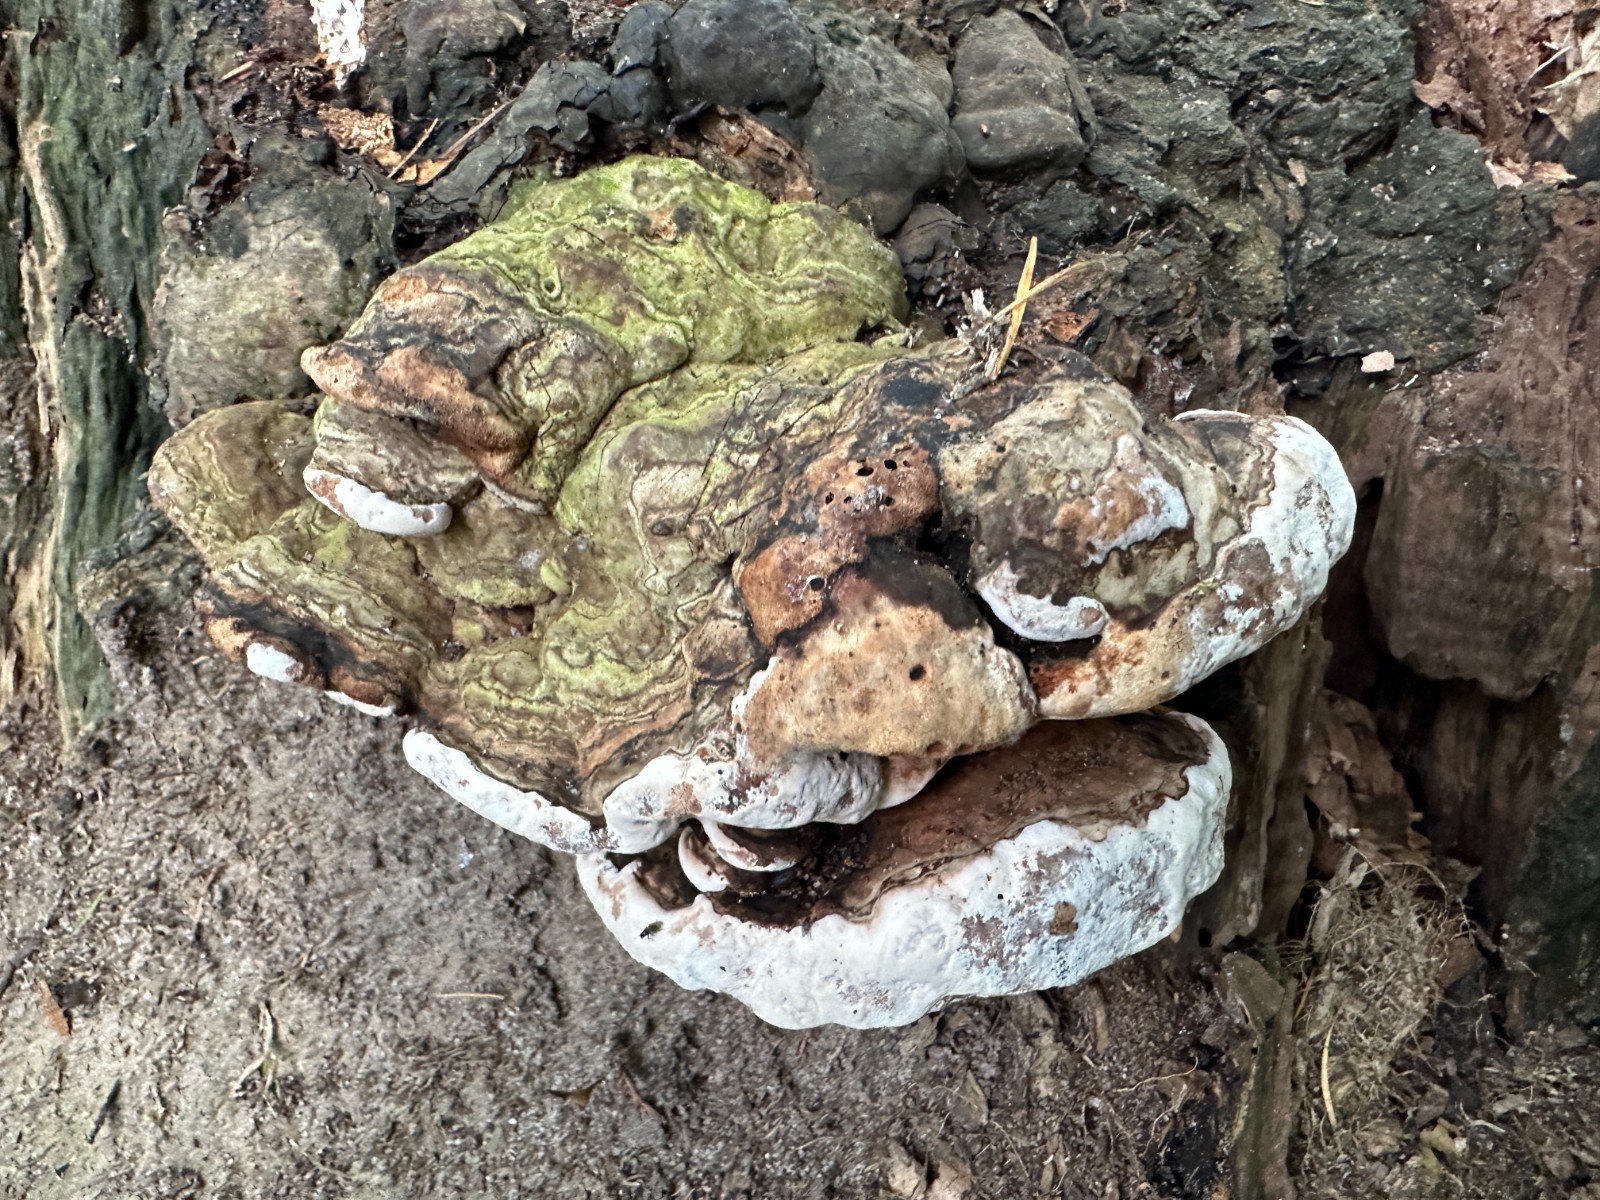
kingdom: Fungi
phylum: Basidiomycota
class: Agaricomycetes
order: Polyporales
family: Polyporaceae
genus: Ganoderma
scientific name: Ganoderma applanatum
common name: flad lakporesvamp
